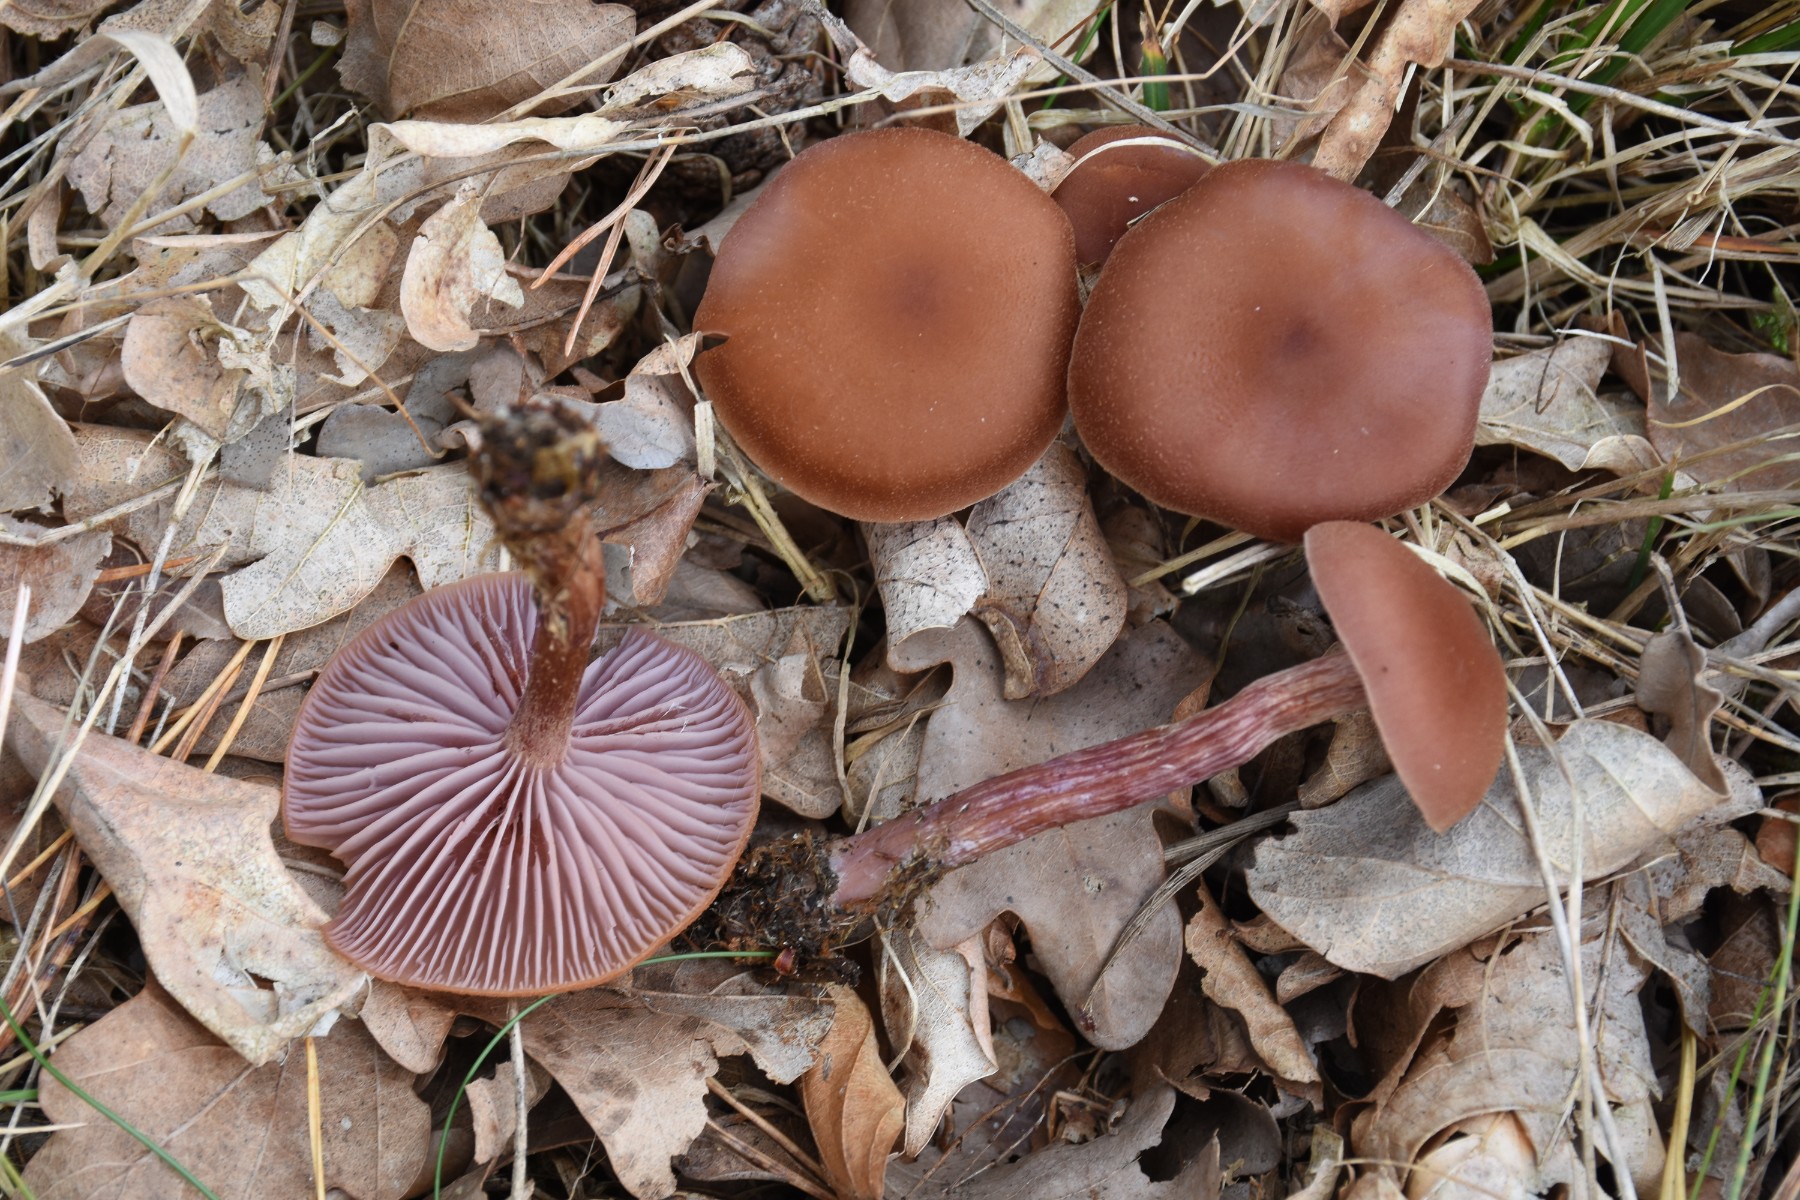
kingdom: Fungi
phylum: Basidiomycota
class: Agaricomycetes
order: Agaricales
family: Hydnangiaceae
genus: Laccaria
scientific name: Laccaria bicolor
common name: tvefarvet ametysthat
